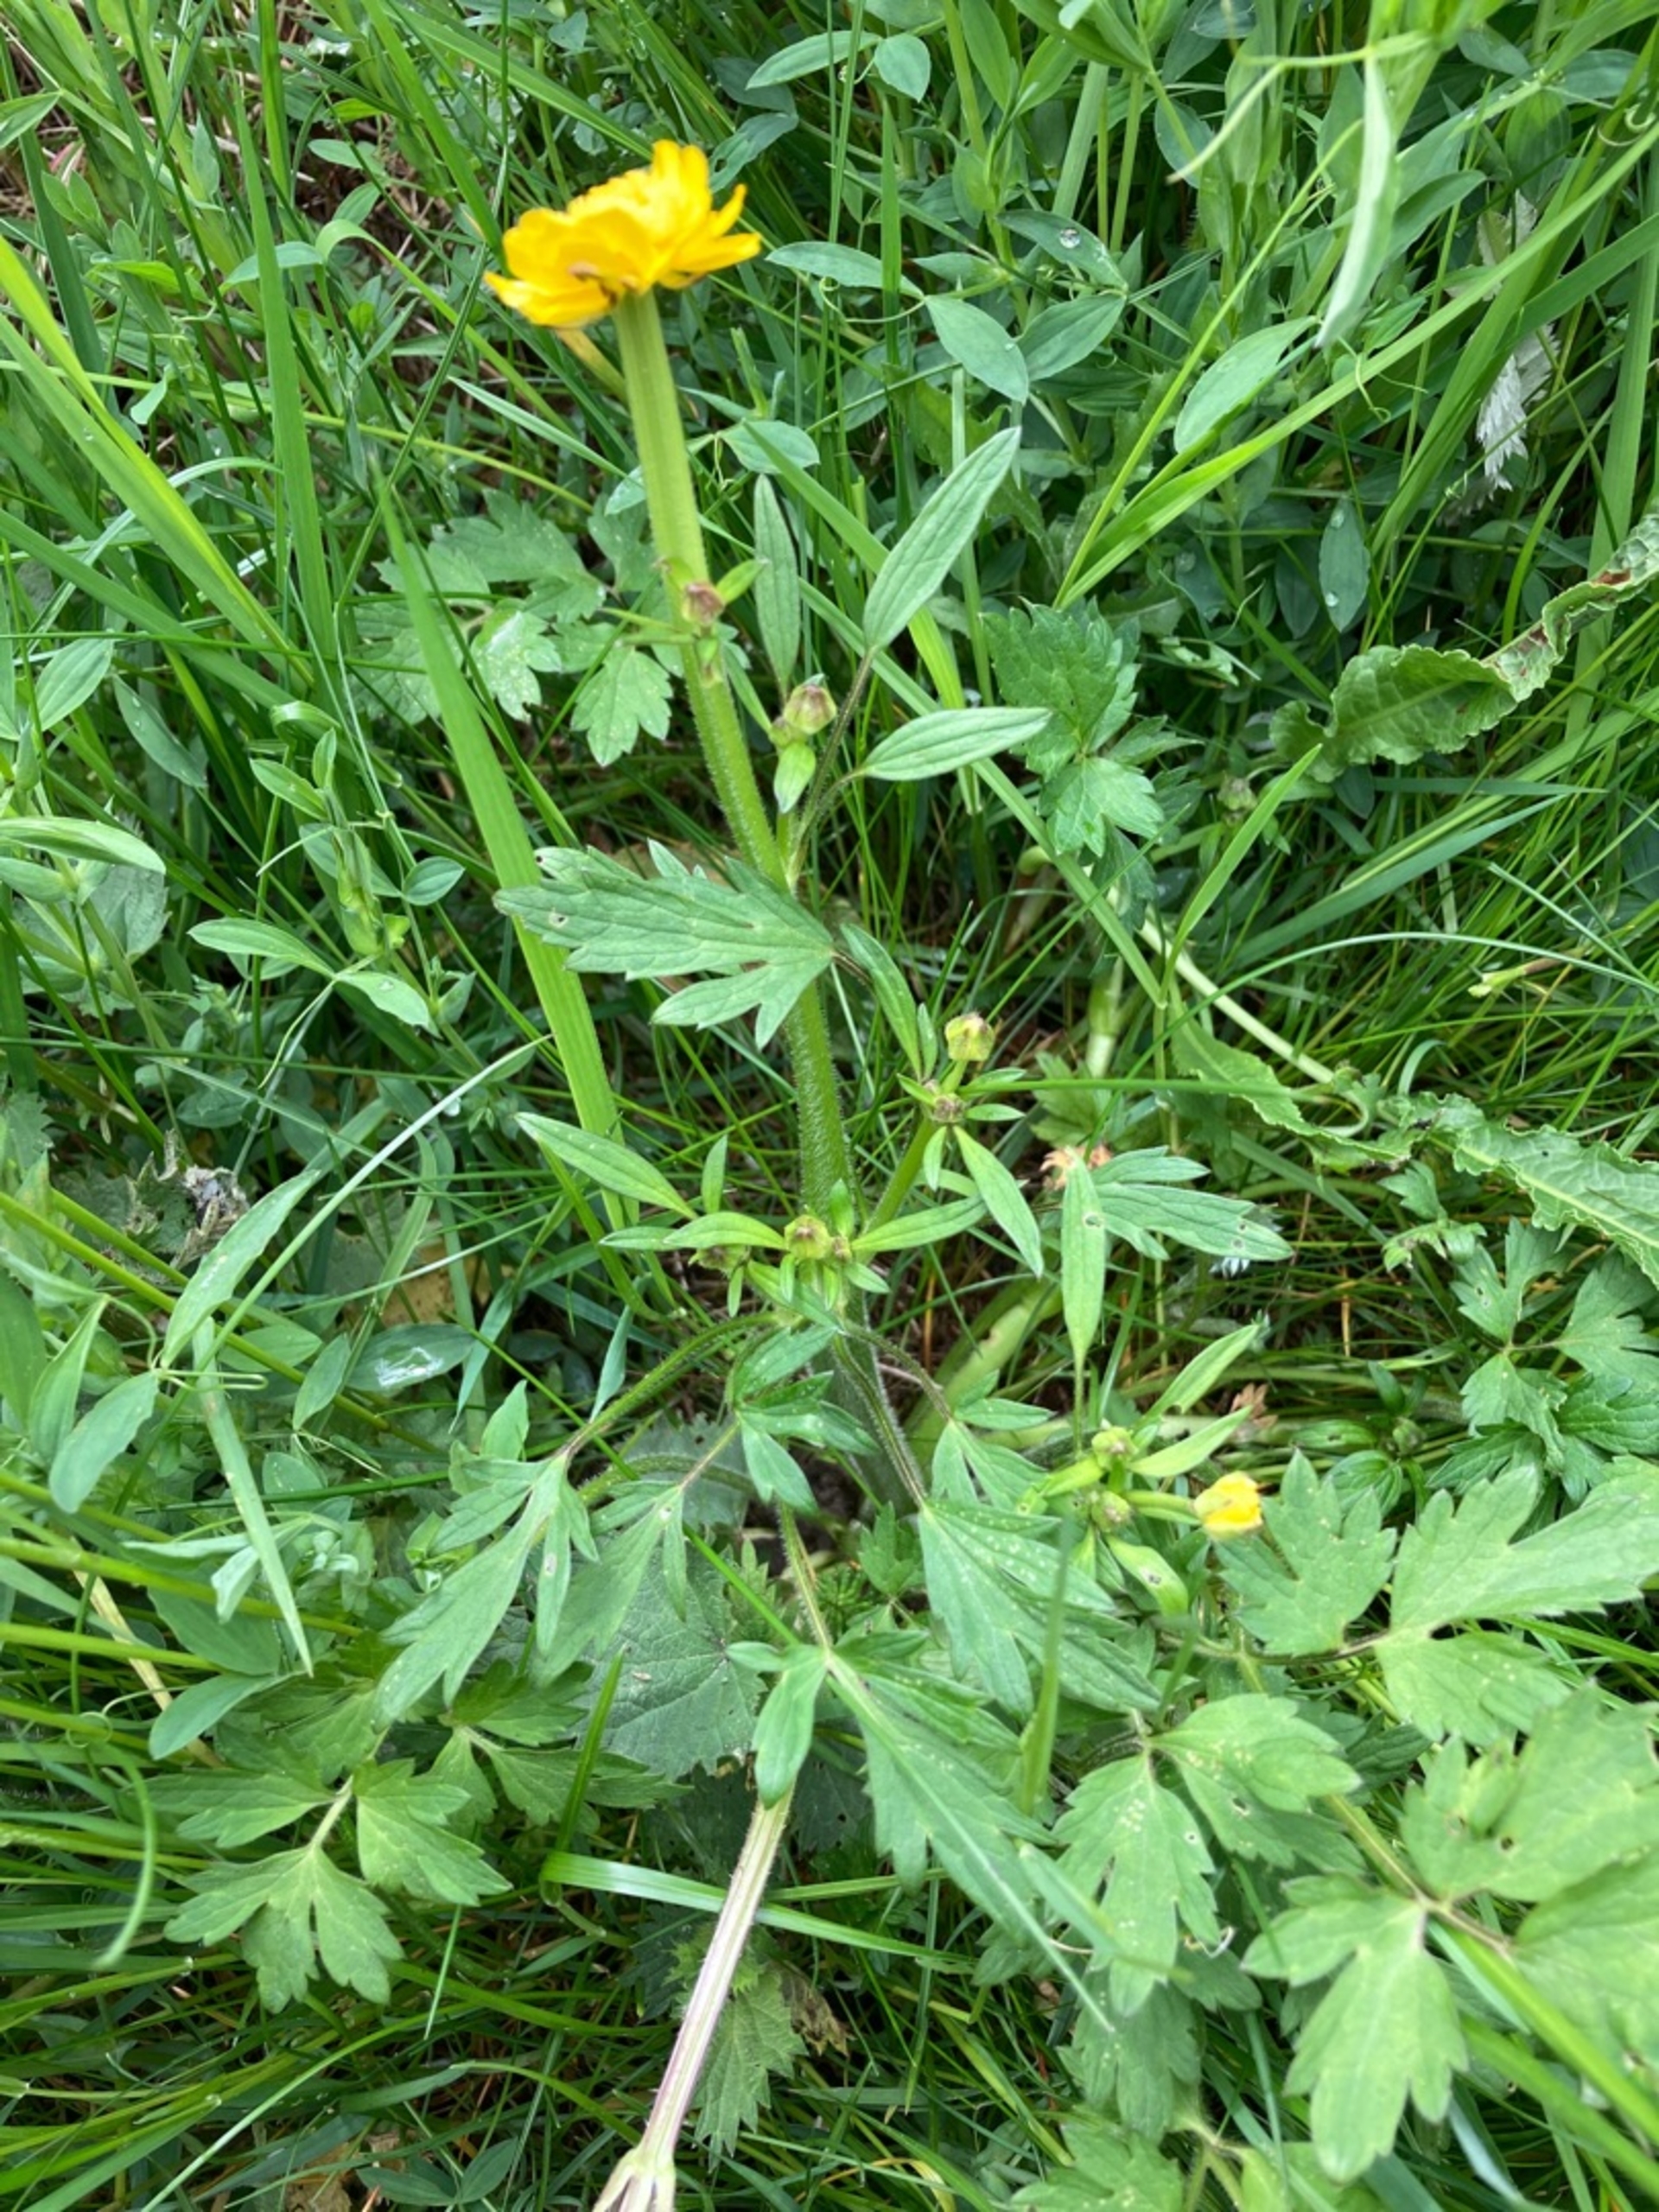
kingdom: Plantae
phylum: Tracheophyta
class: Magnoliopsida
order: Ranunculales
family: Ranunculaceae
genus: Ranunculus
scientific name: Ranunculus repens
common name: Lav ranunkel
